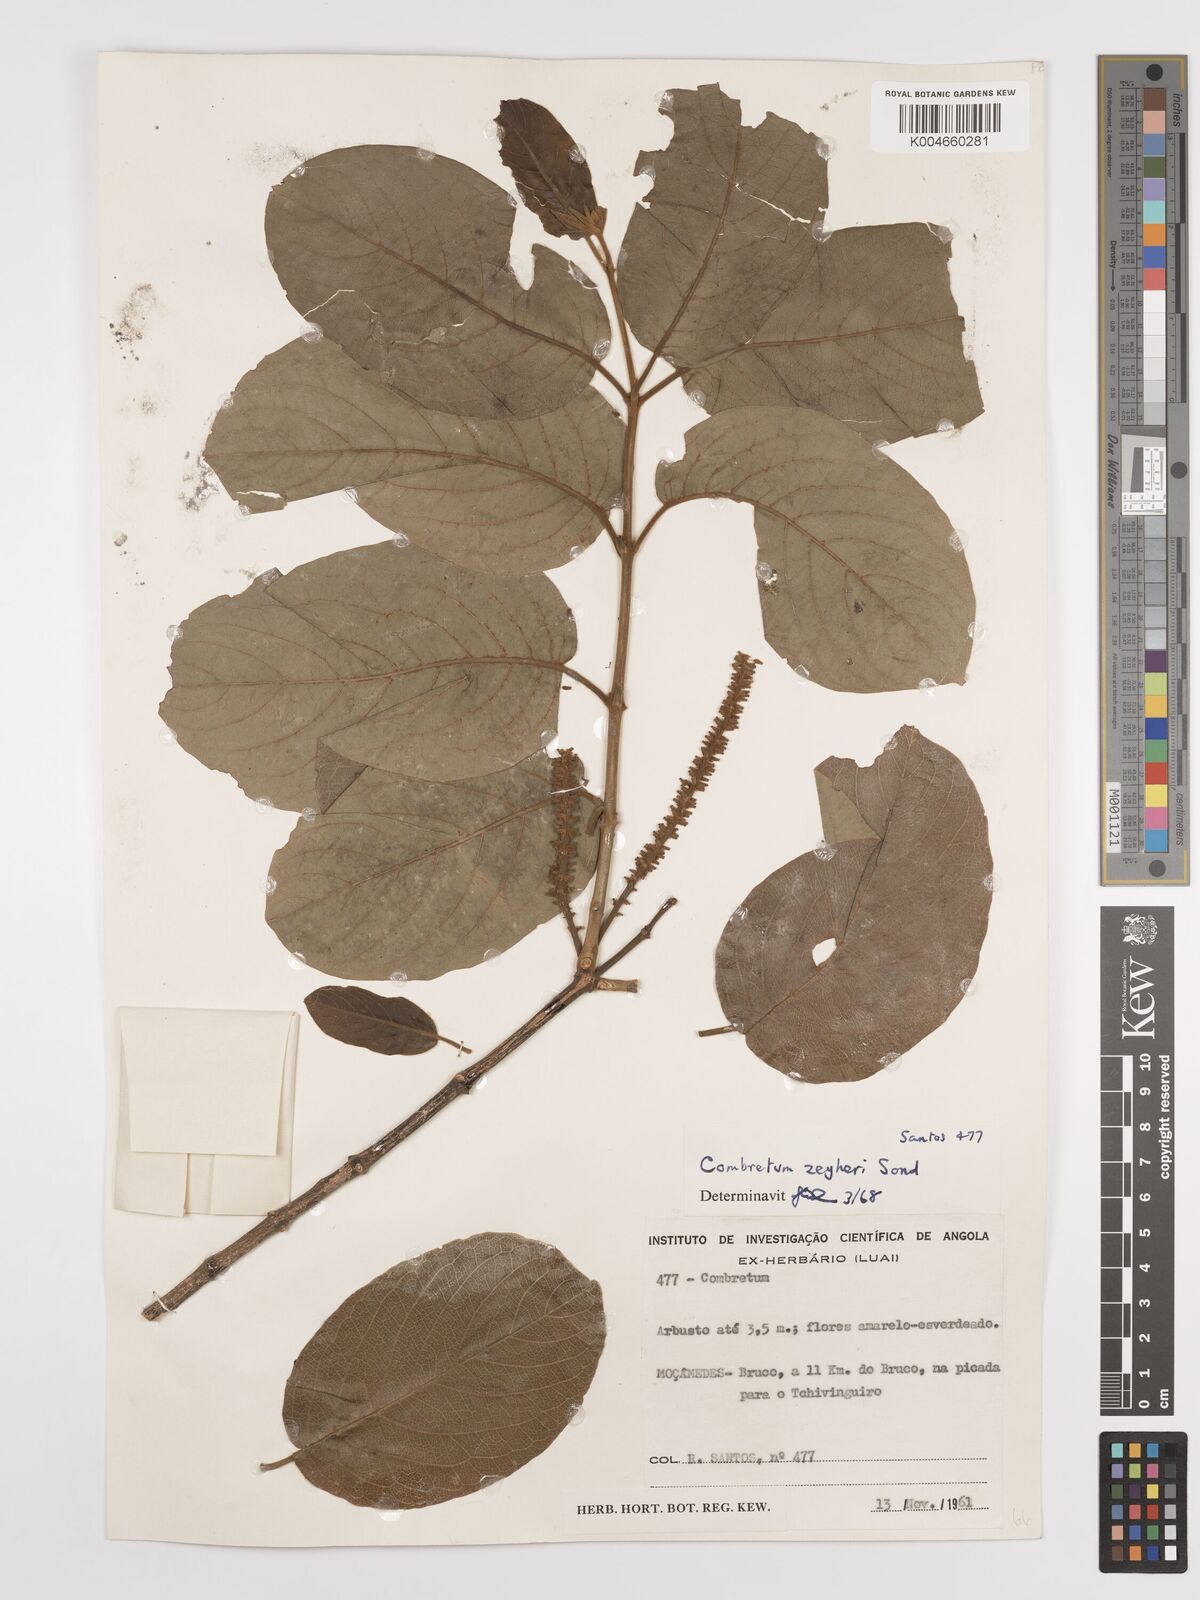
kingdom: Plantae
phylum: Tracheophyta
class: Magnoliopsida
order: Myrtales
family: Combretaceae
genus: Combretum
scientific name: Combretum zeyheri
